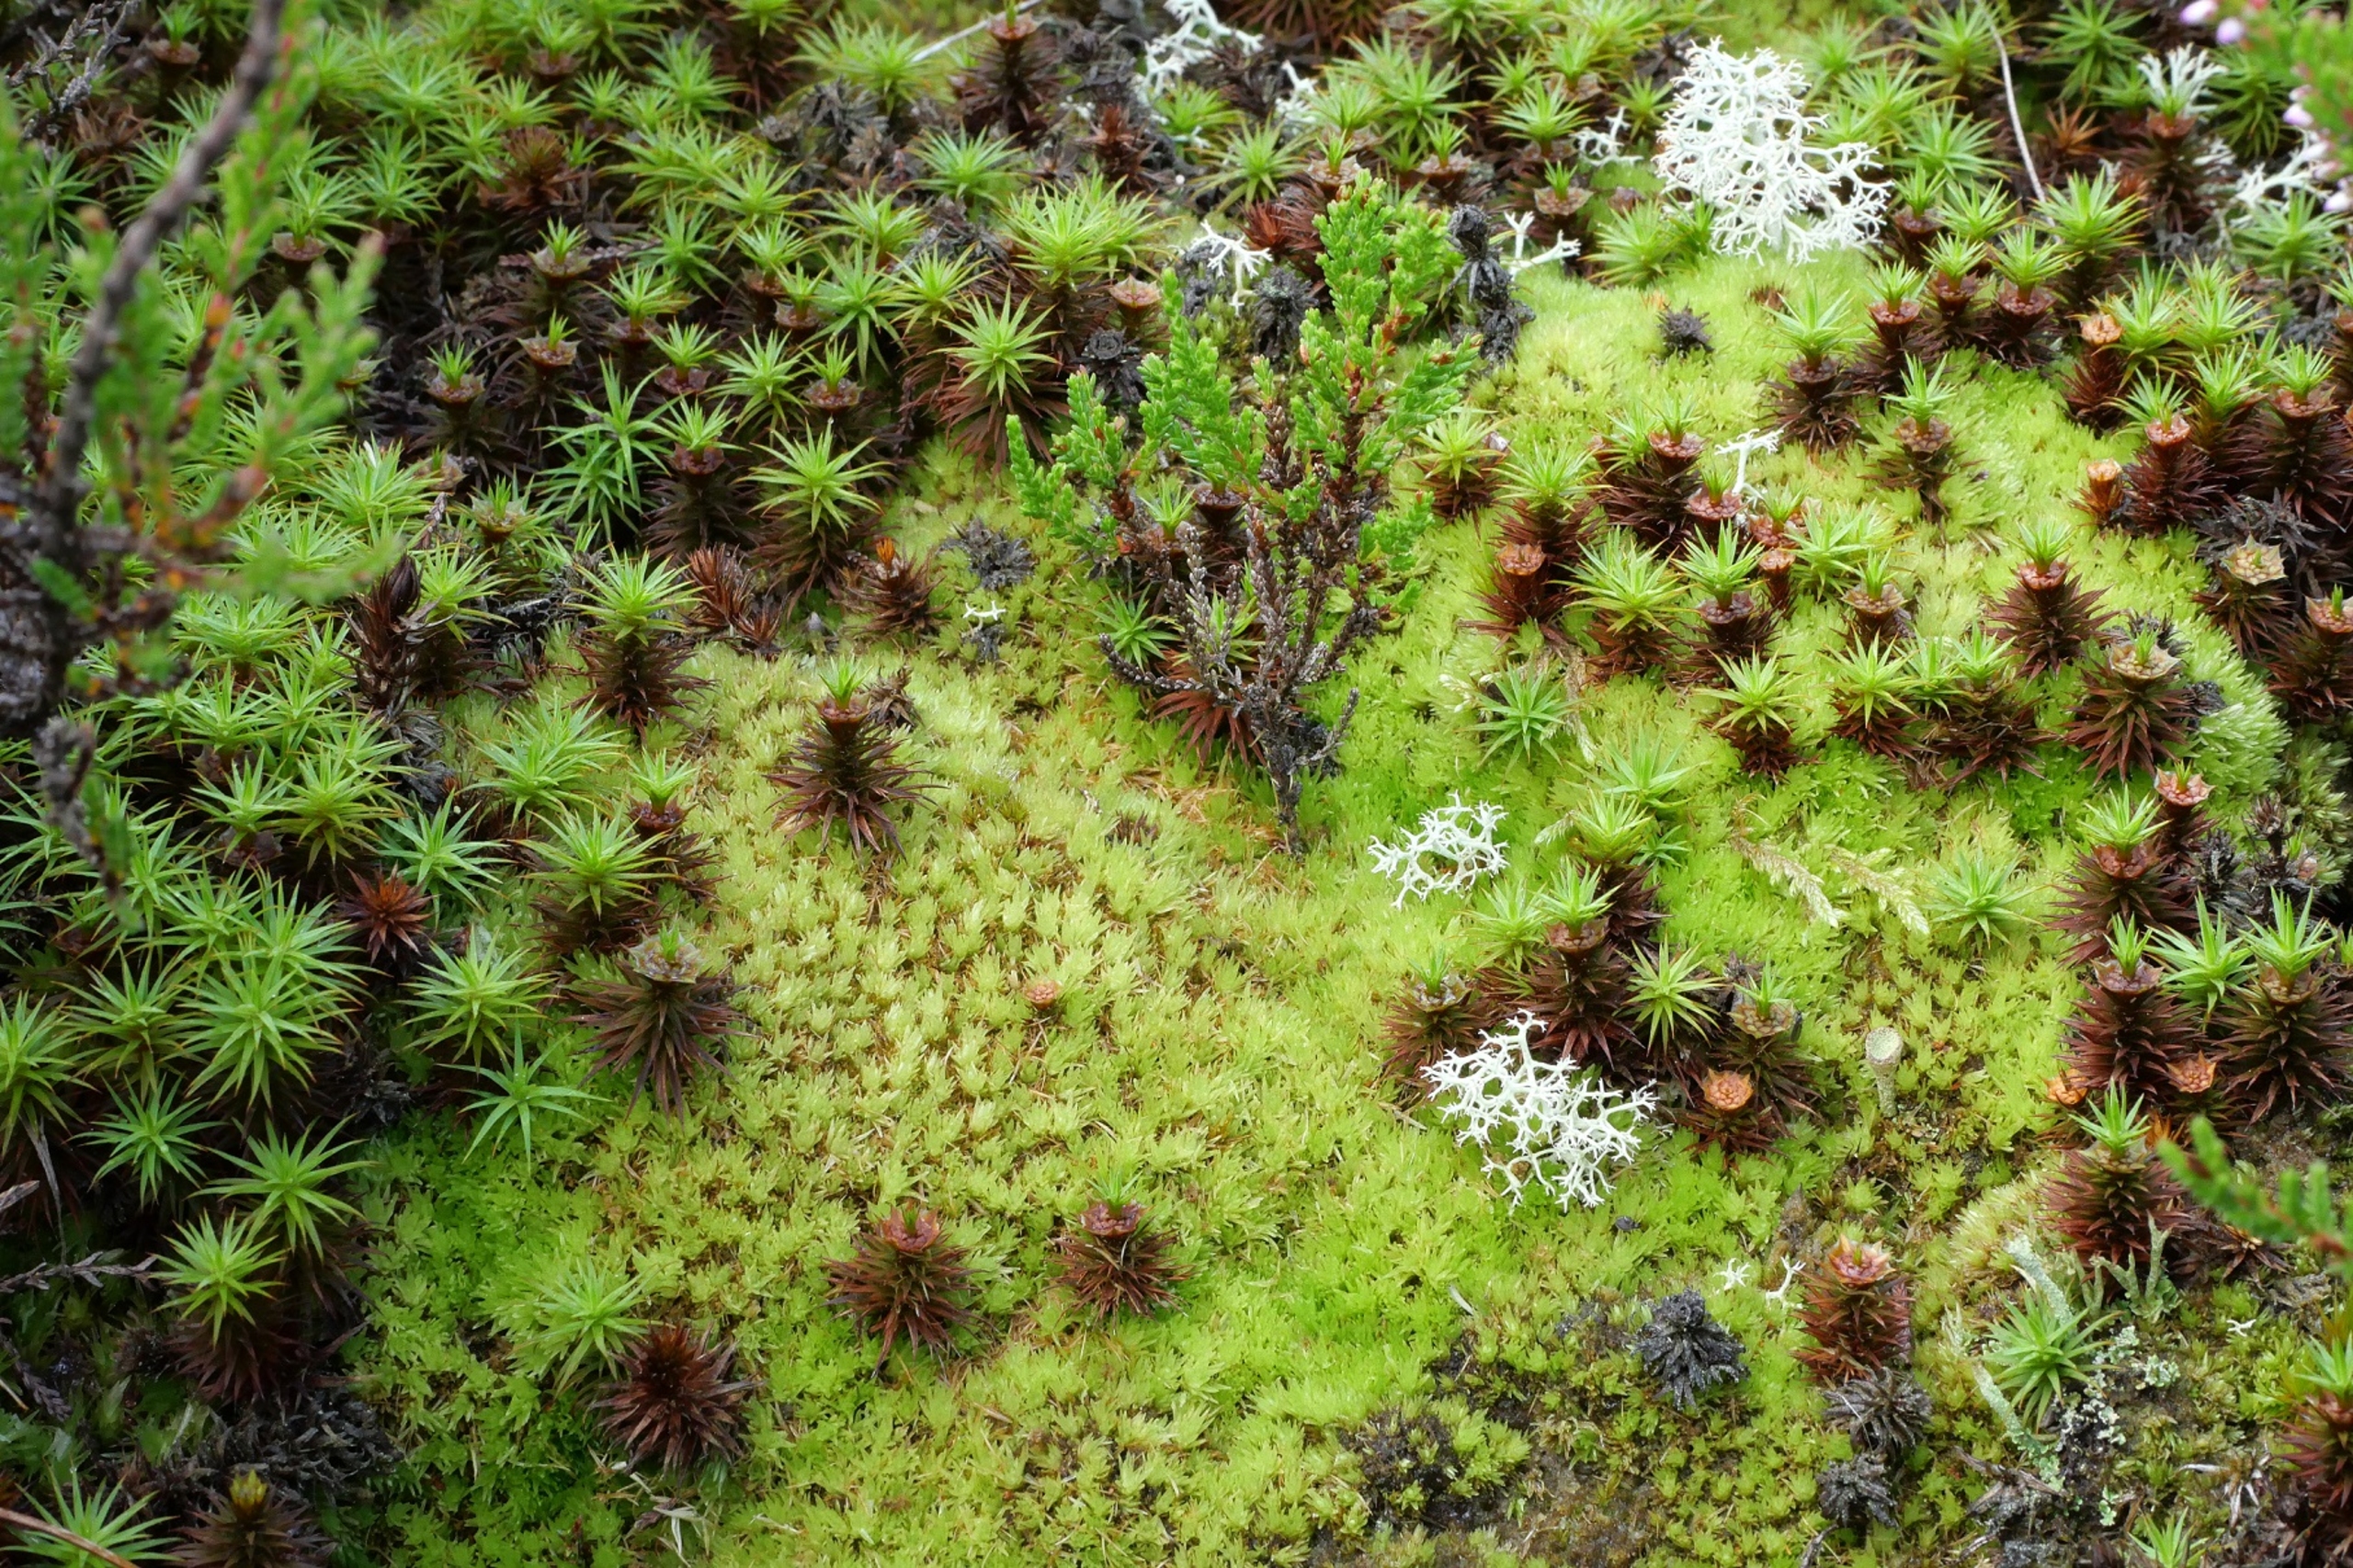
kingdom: Plantae
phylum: Bryophyta
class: Polytrichopsida
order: Polytrichales
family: Polytrichaceae
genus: Polytrichum
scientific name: Polytrichum commune
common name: Almindelig jomfruhår
